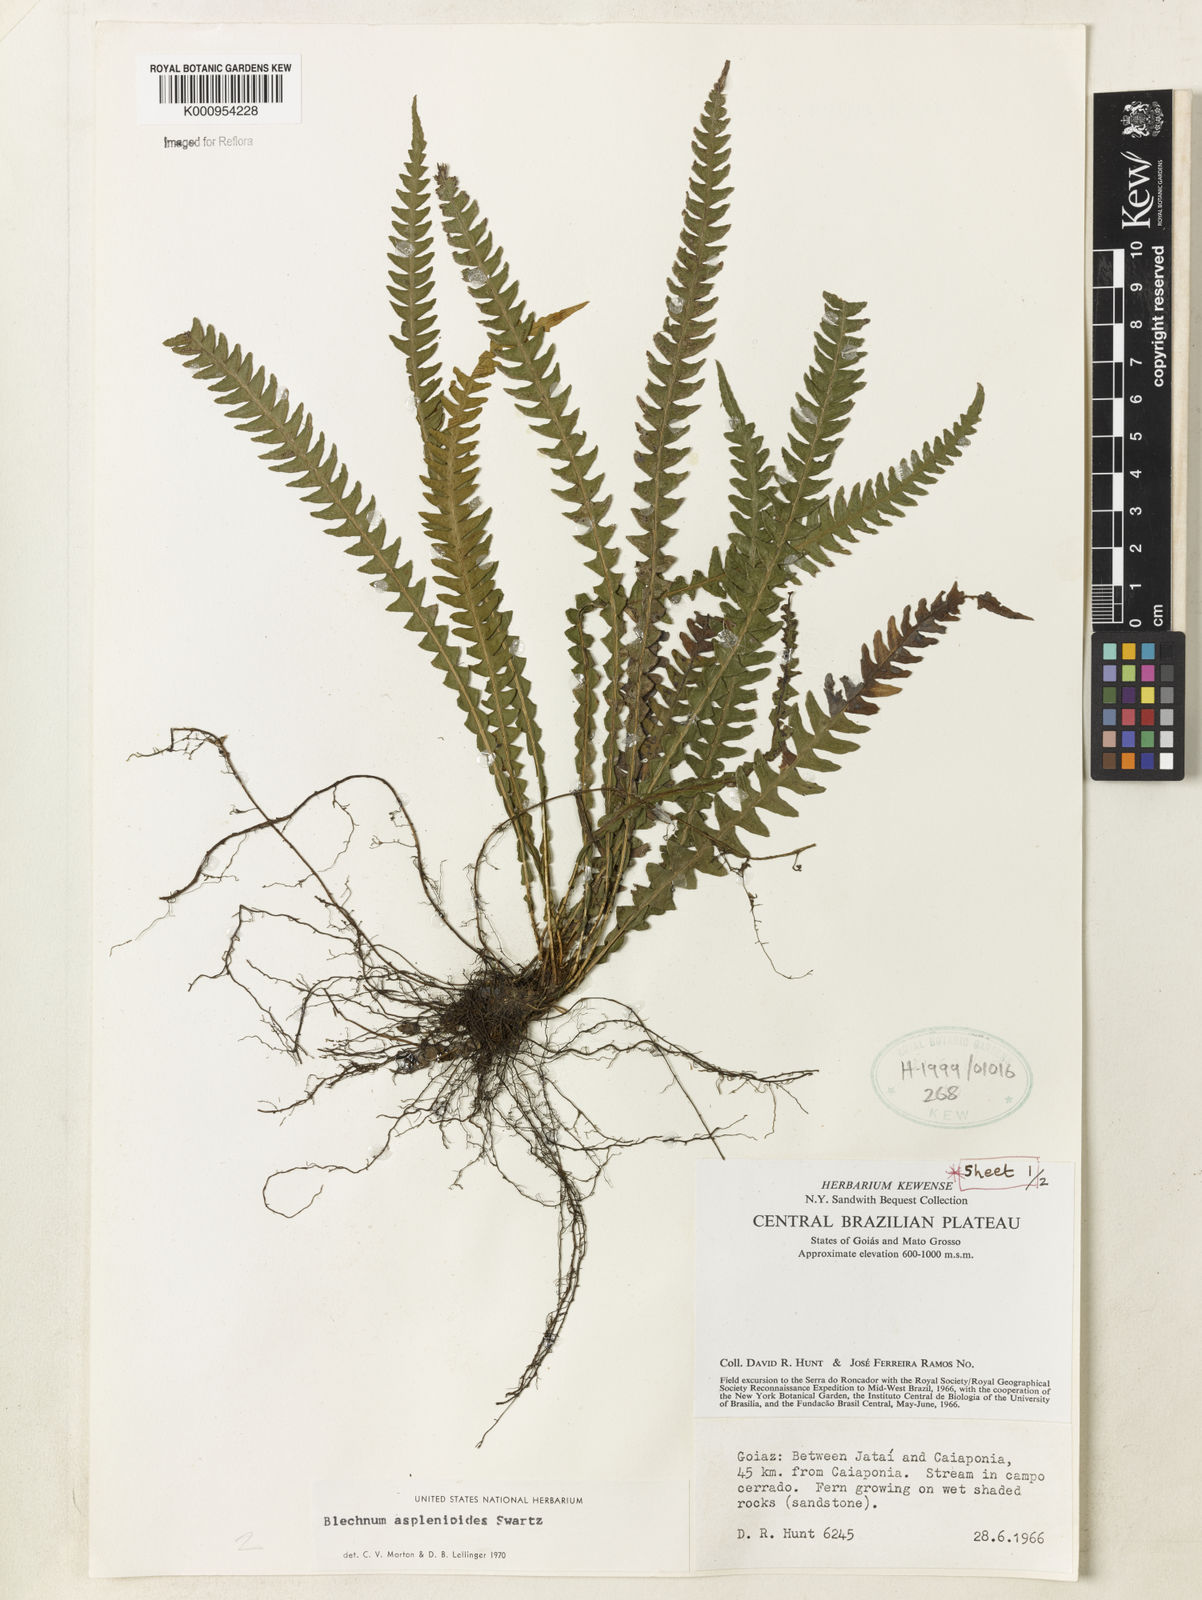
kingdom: Plantae
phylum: Tracheophyta
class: Polypodiopsida
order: Polypodiales
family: Blechnaceae
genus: Blechnum
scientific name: Blechnum asplenioides
